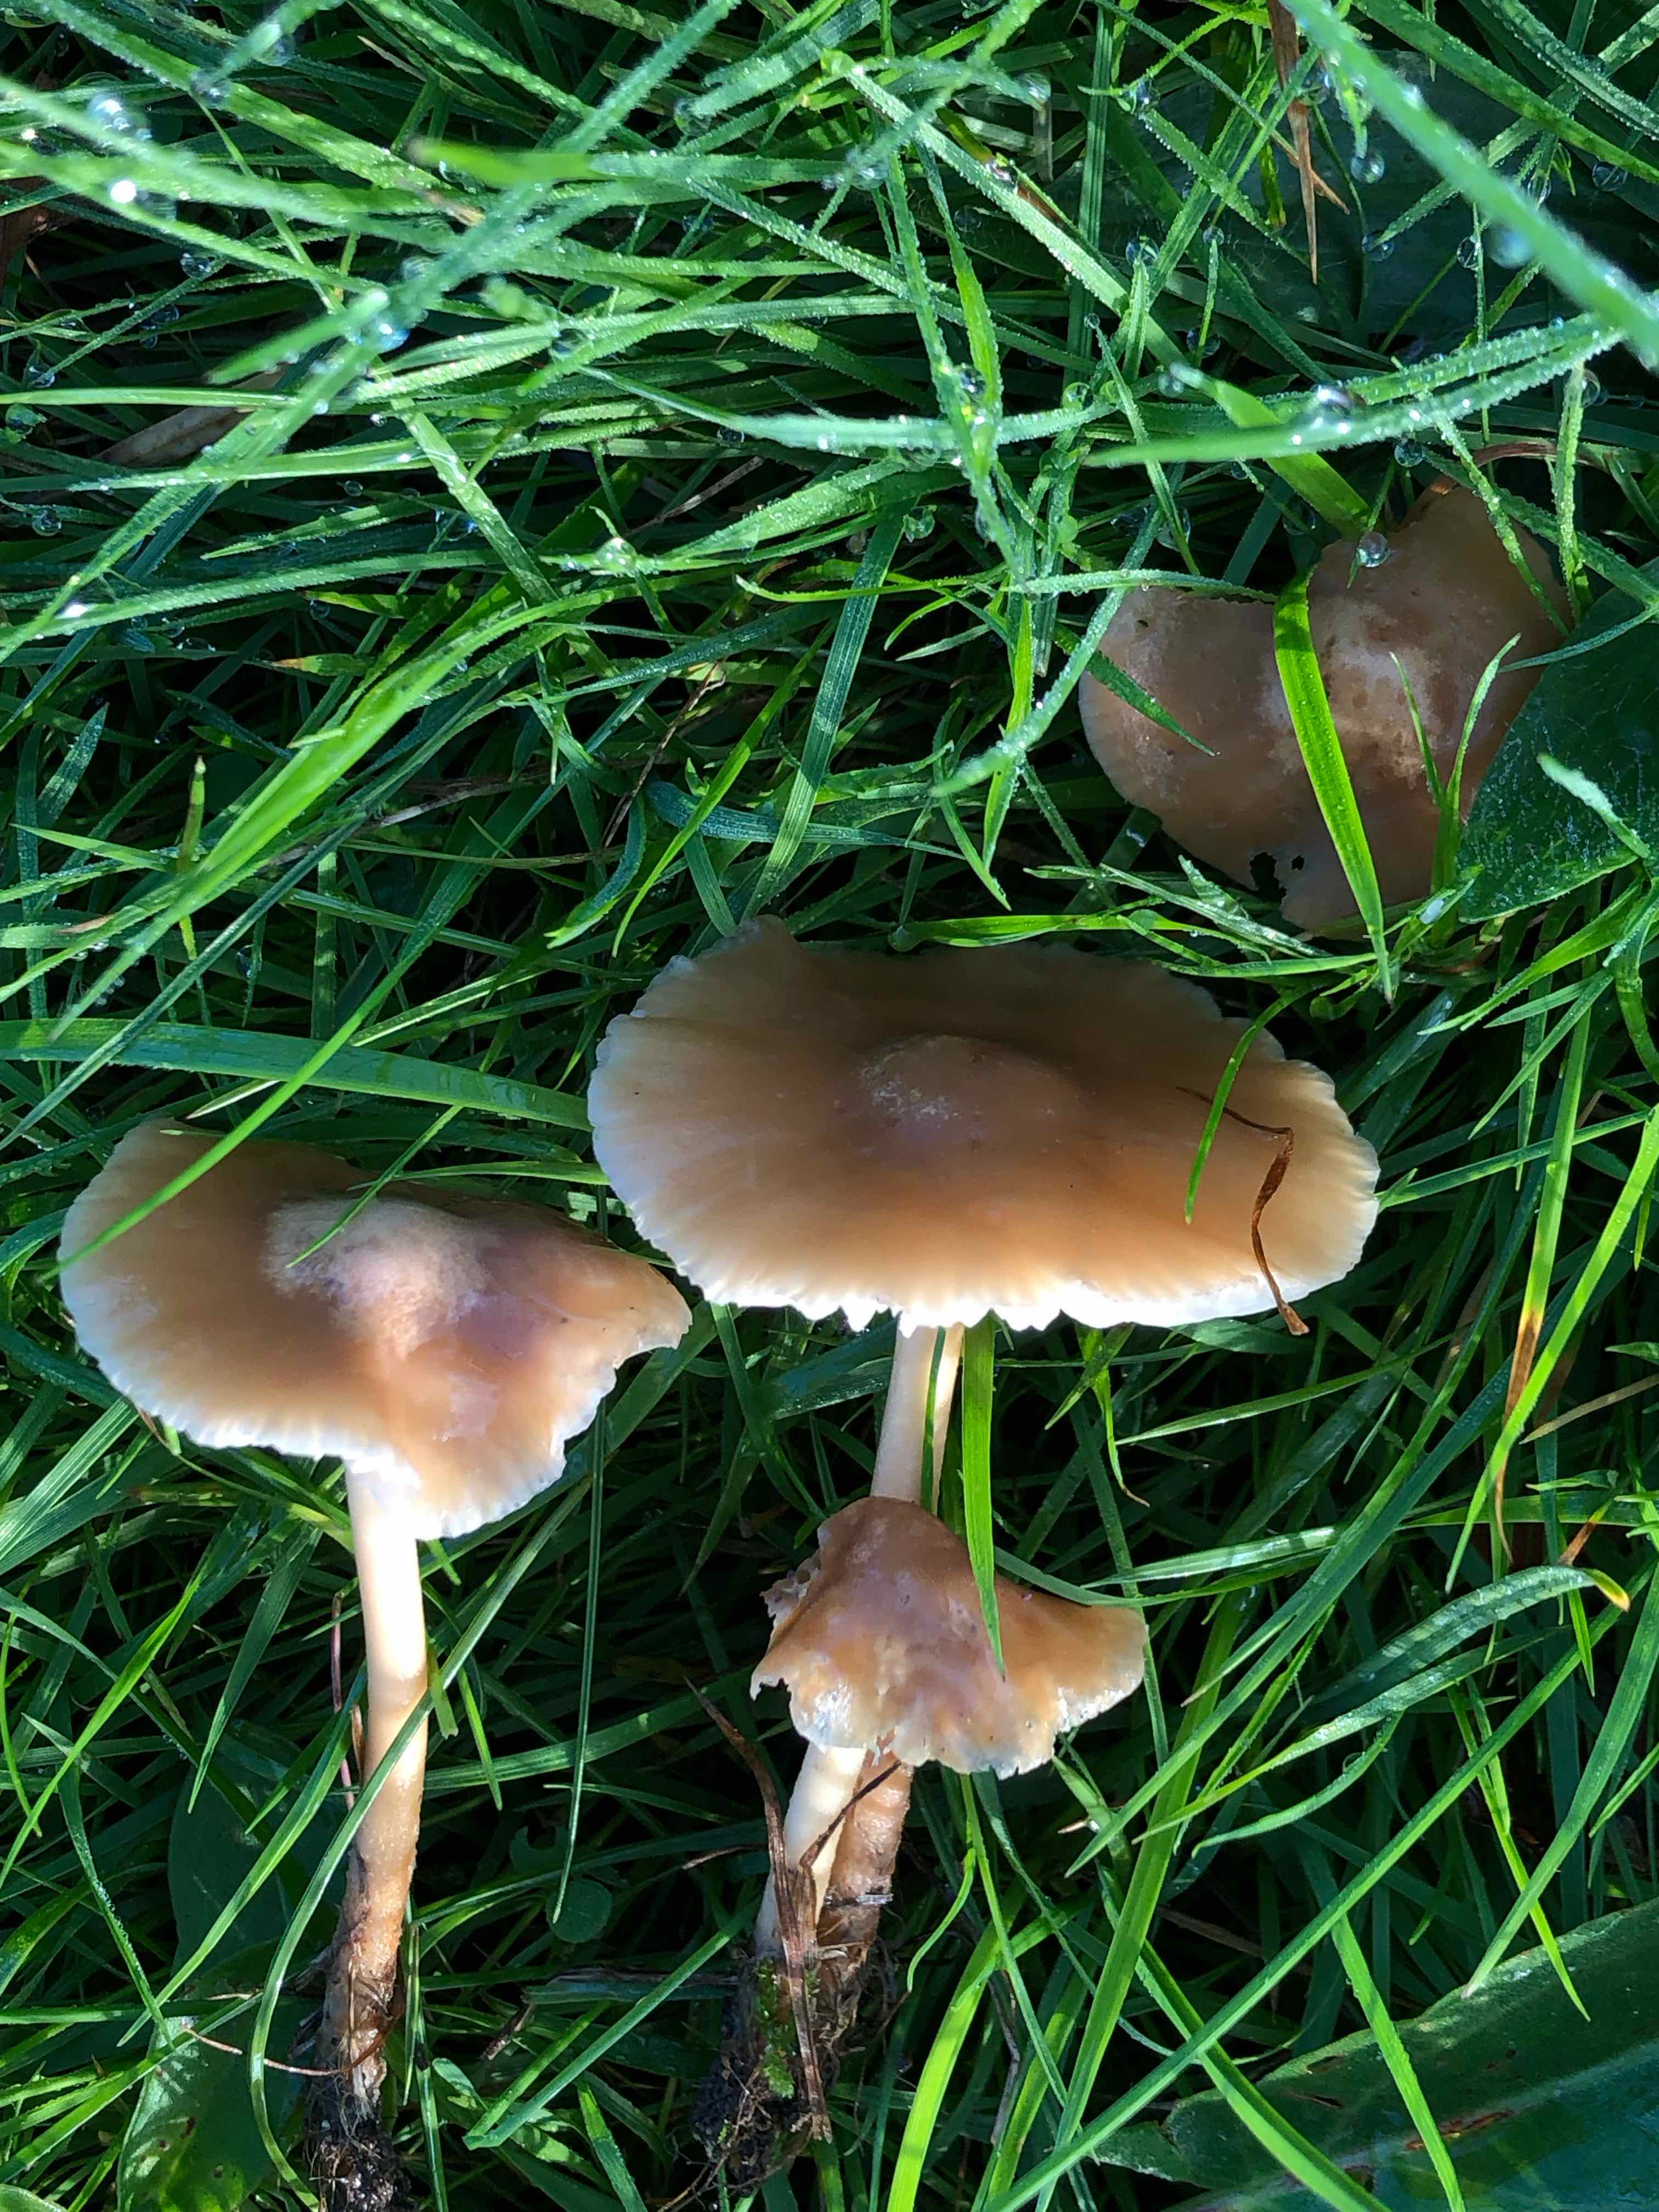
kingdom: Fungi
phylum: Basidiomycota
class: Agaricomycetes
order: Agaricales
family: Marasmiaceae
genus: Marasmius
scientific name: Marasmius oreades
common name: elledans-bruskhat
